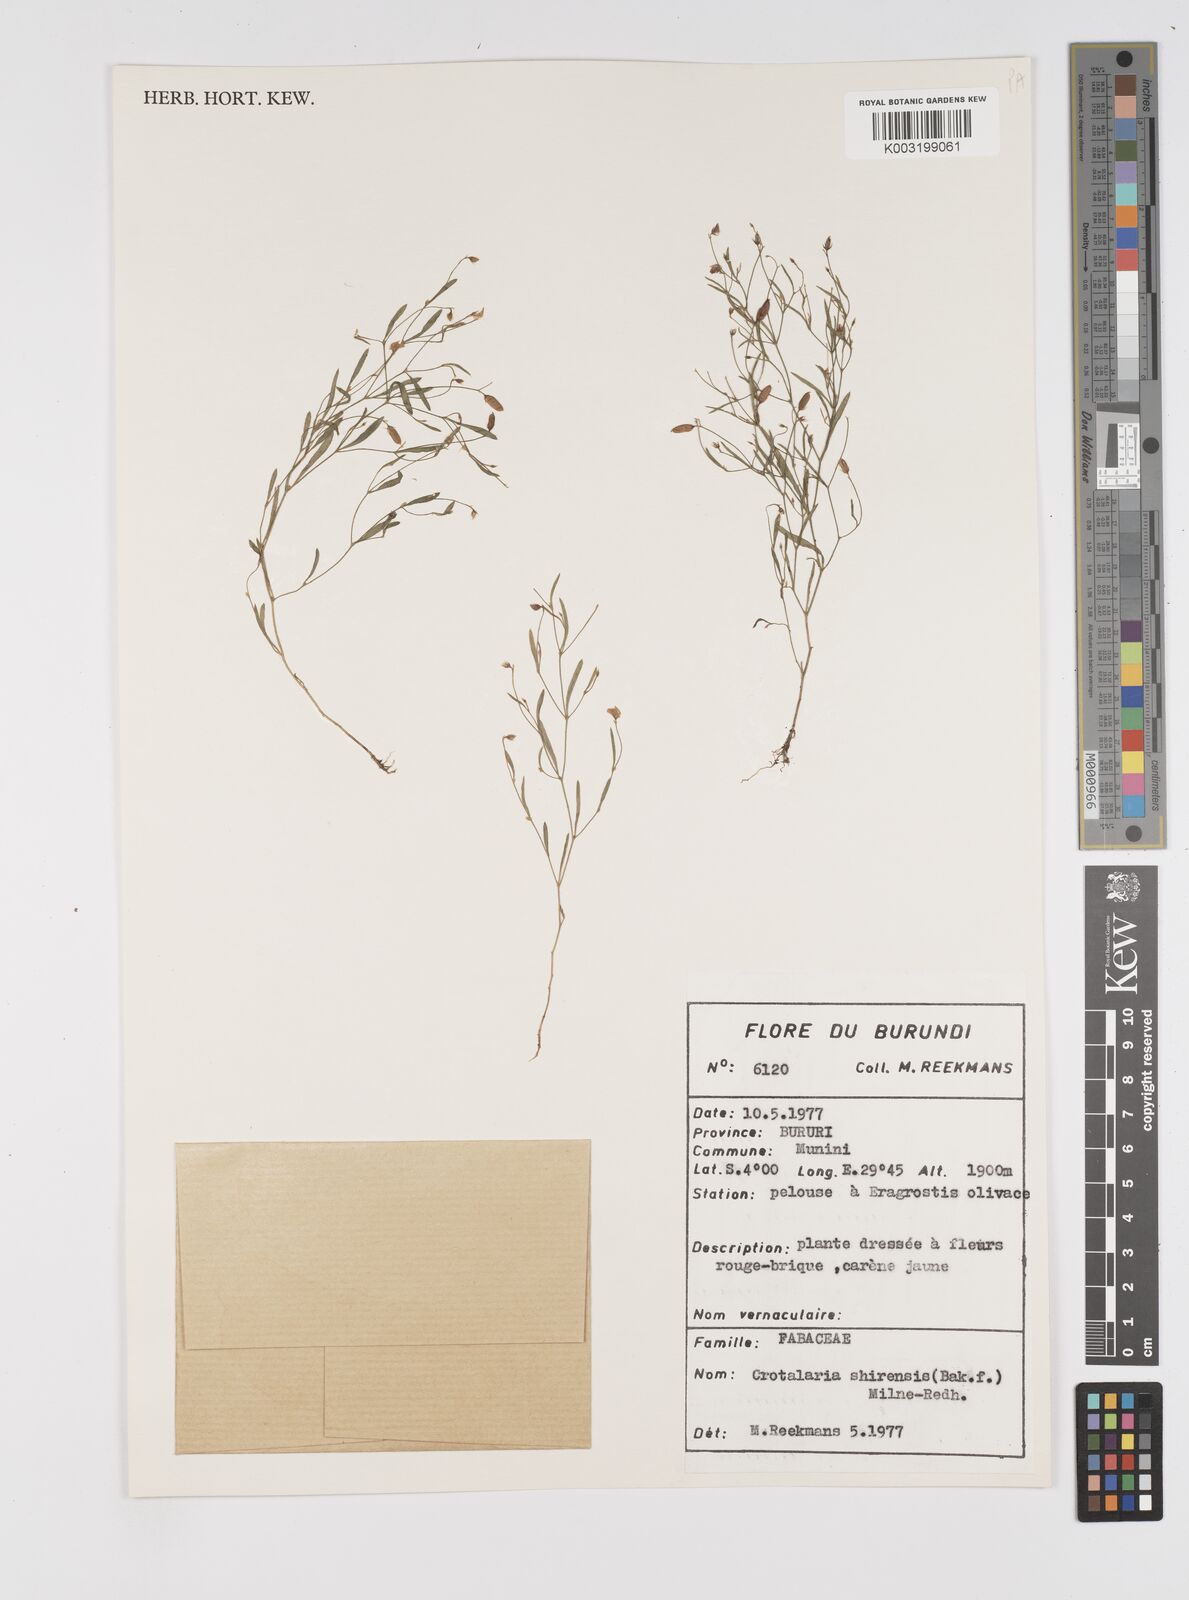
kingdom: Plantae
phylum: Tracheophyta
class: Magnoliopsida
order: Fabales
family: Fabaceae
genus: Crotalaria
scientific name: Crotalaria shirensis
